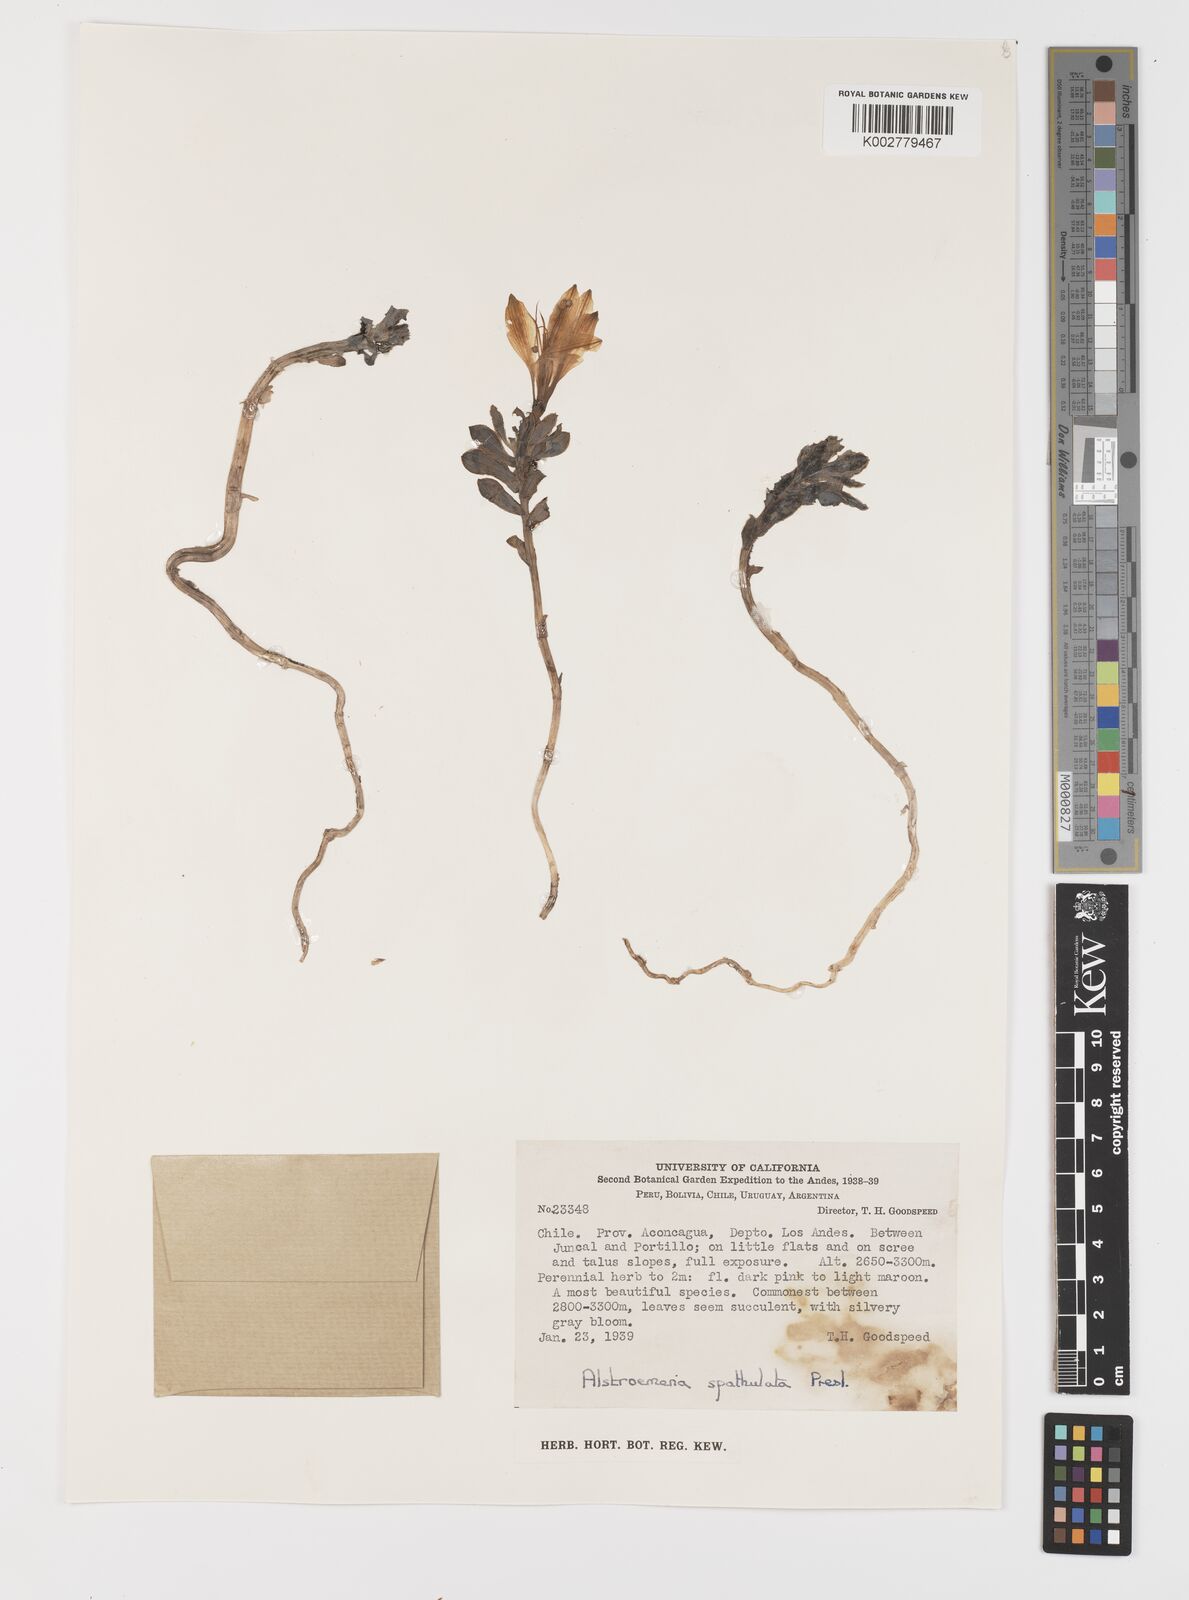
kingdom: Plantae
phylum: Tracheophyta
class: Liliopsida
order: Liliales
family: Alstroemeriaceae
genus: Alstroemeria
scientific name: Alstroemeria spathulata
